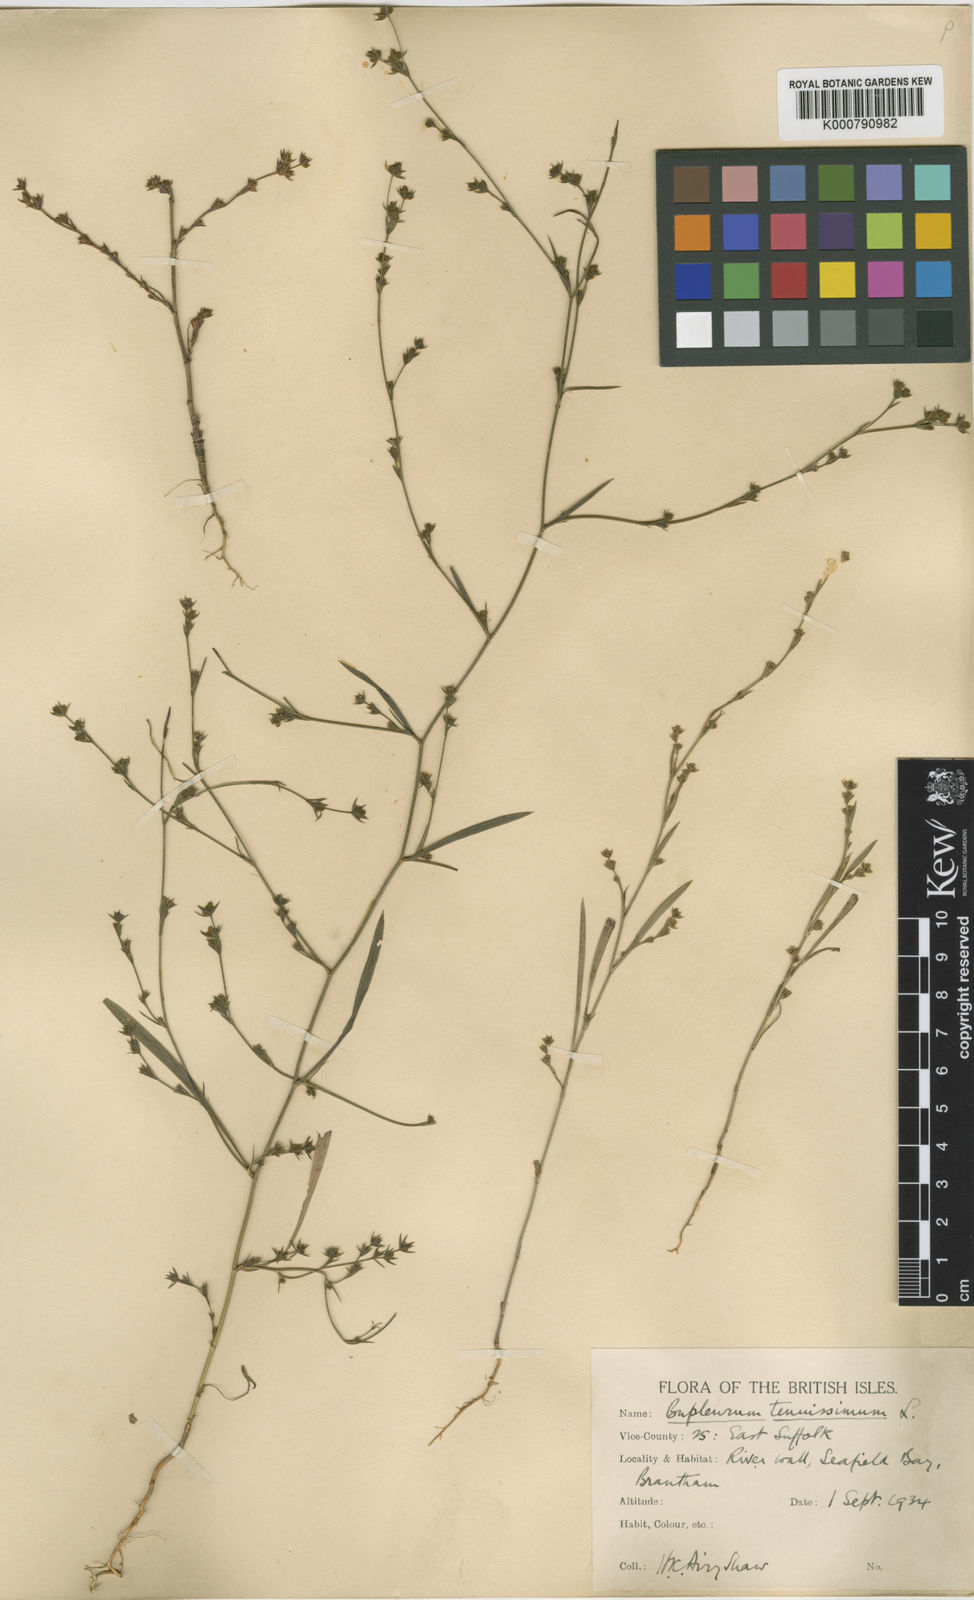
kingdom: Plantae
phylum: Tracheophyta
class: Magnoliopsida
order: Apiales
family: Apiaceae
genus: Bupleurum
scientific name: Bupleurum tenuissimum
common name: Slender hare's-ear
